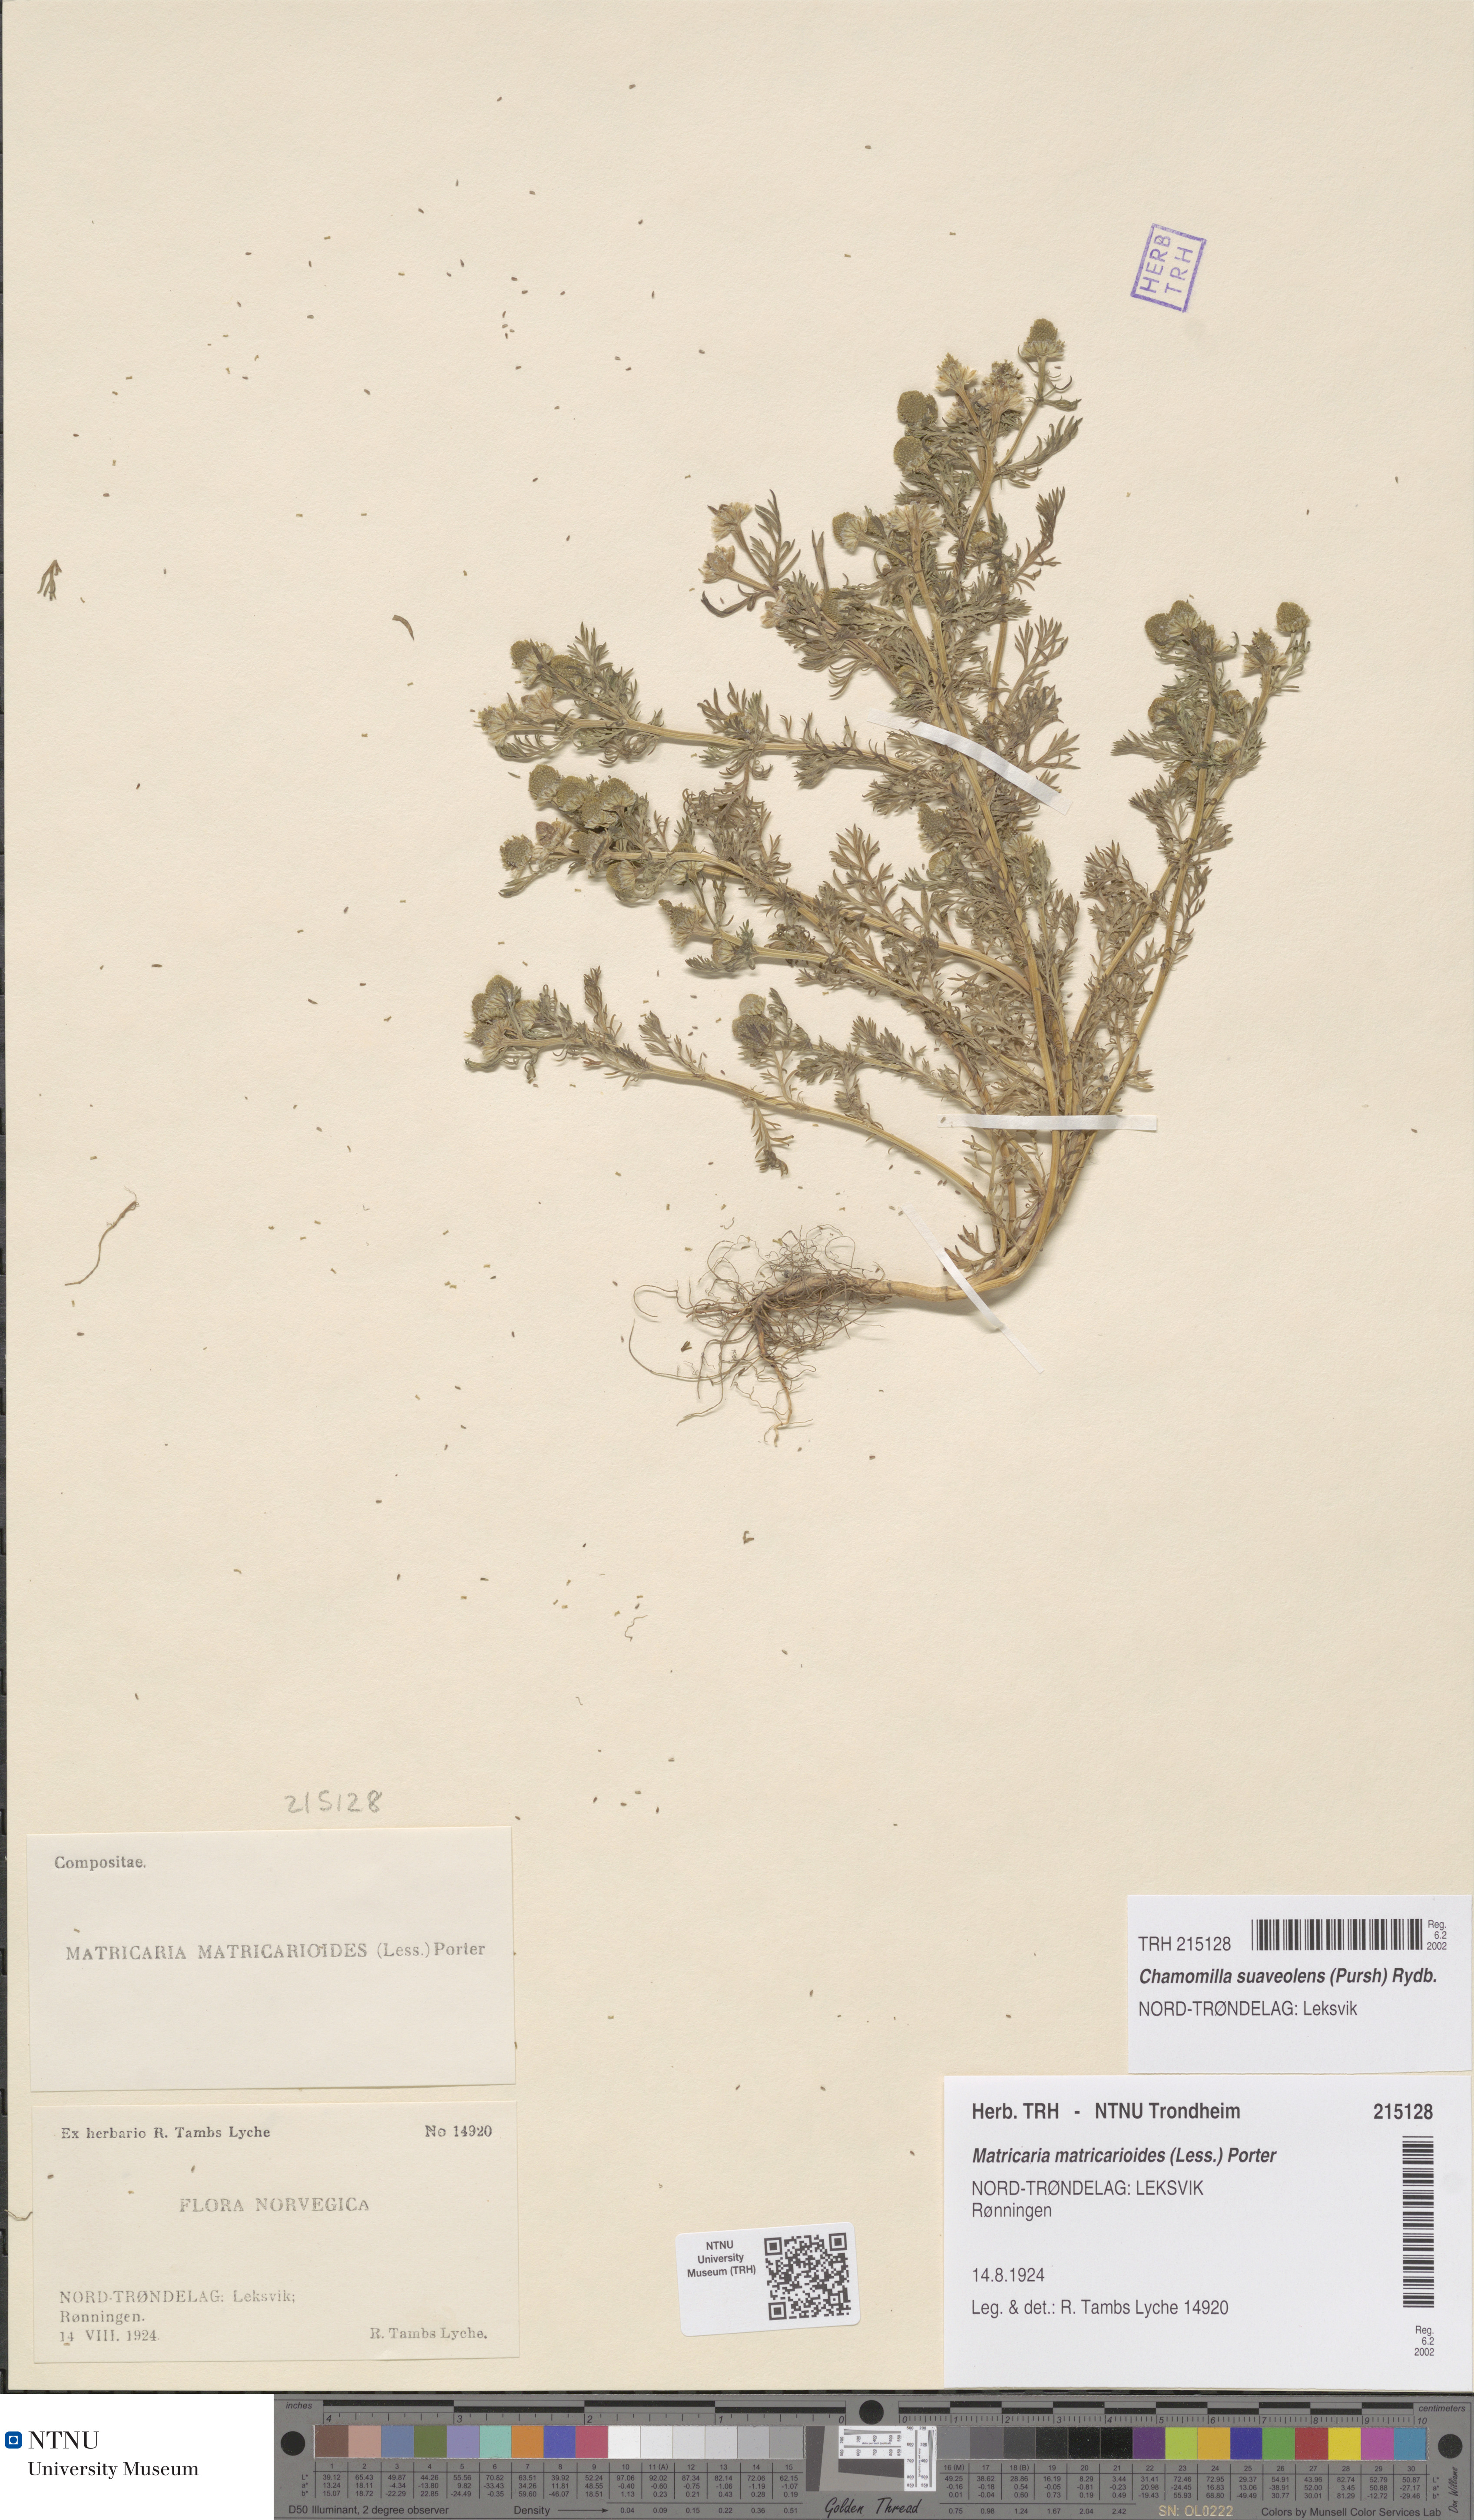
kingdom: Plantae
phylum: Tracheophyta
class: Magnoliopsida
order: Asterales
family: Asteraceae
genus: Matricaria
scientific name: Matricaria discoidea
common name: Disc mayweed
